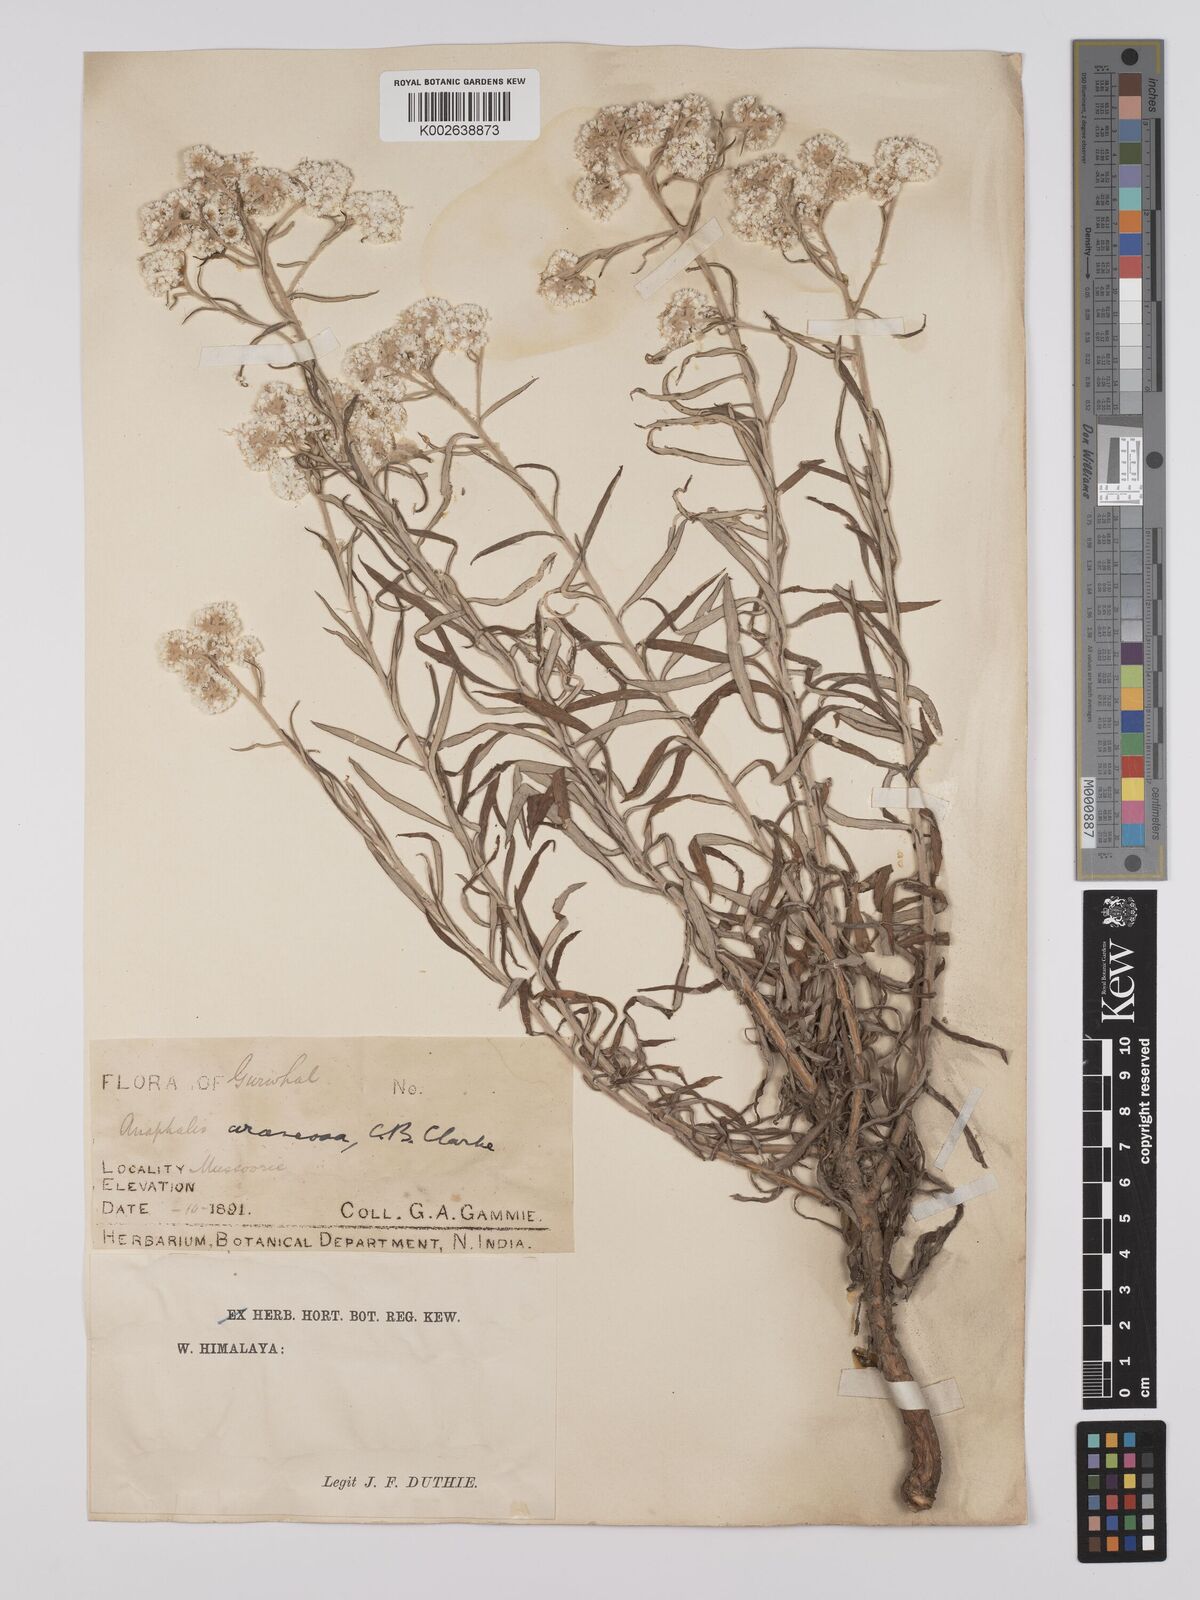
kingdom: Plantae
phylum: Tracheophyta
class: Magnoliopsida
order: Asterales
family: Asteraceae
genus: Anaphalis
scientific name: Anaphalis busua
